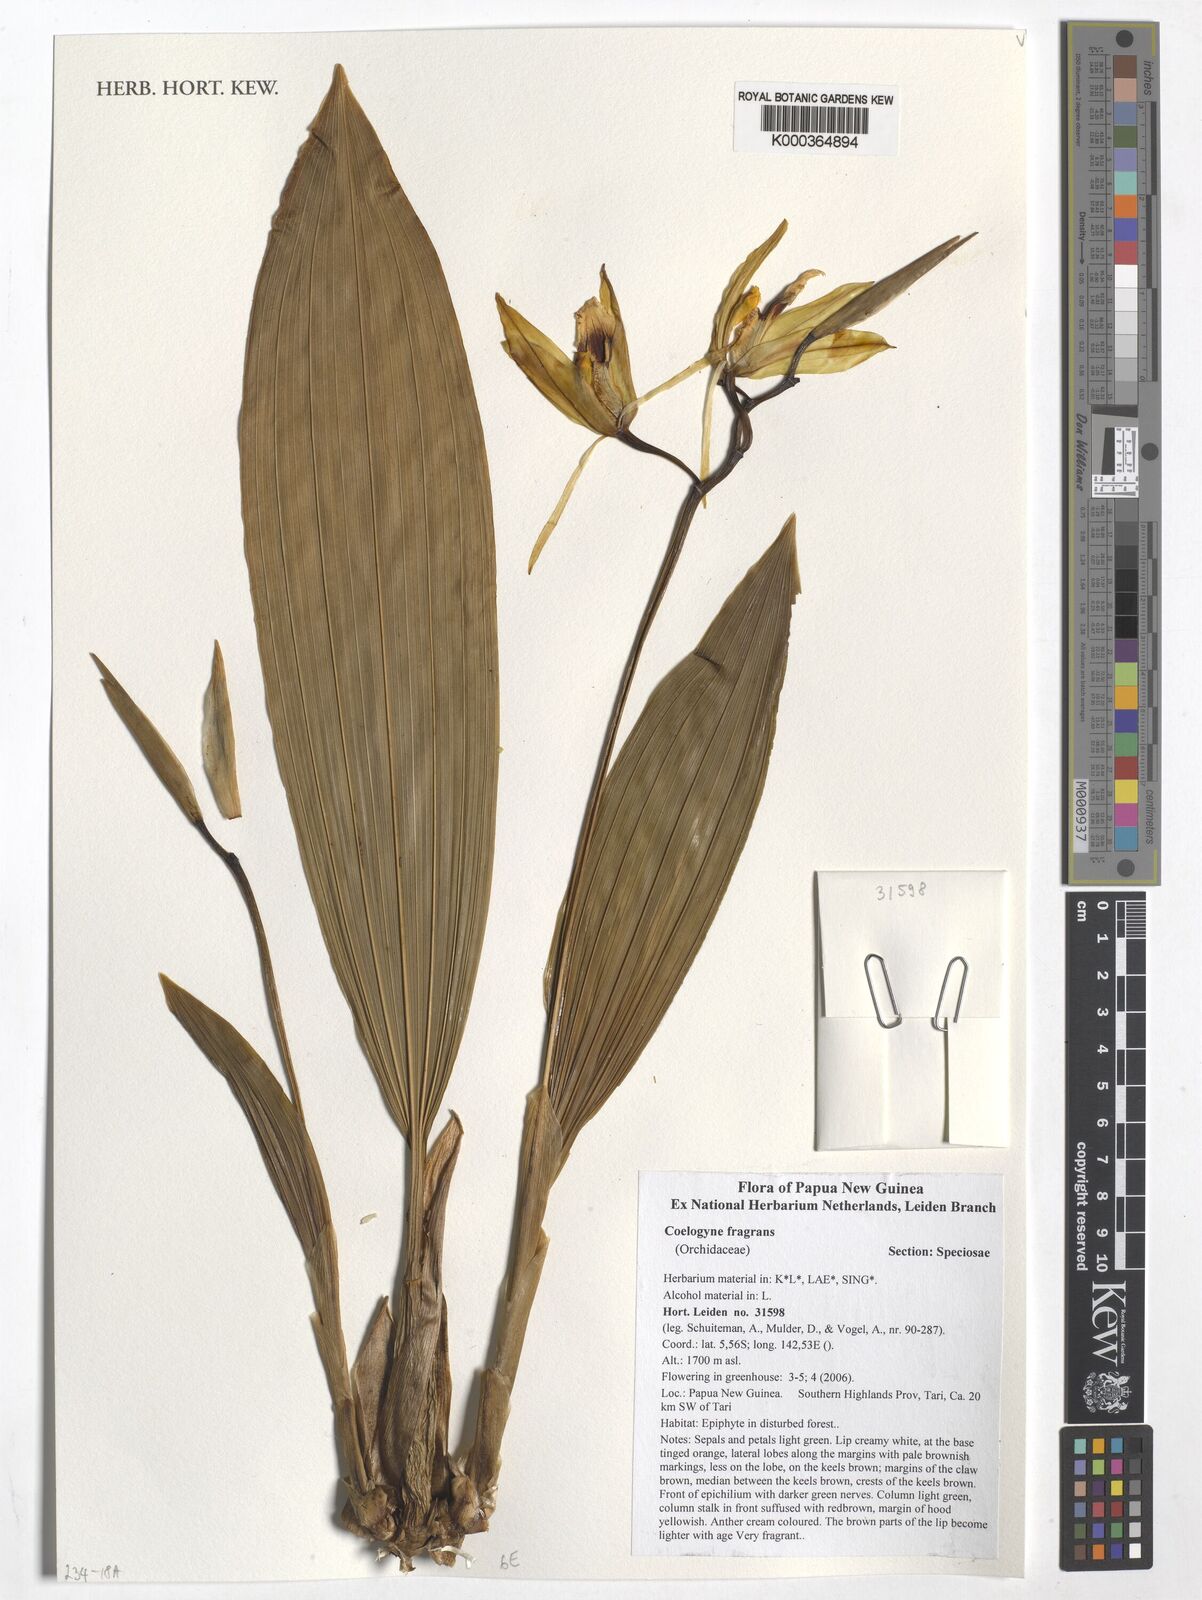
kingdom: Plantae
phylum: Tracheophyta
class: Liliopsida
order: Asparagales
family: Orchidaceae
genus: Coelogyne
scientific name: Coelogyne fragrans
